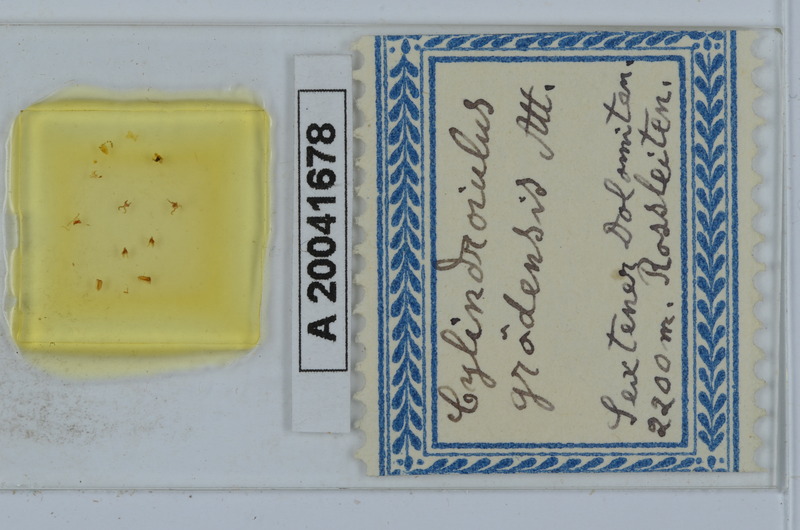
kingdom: Animalia
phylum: Arthropoda
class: Diplopoda
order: Julida
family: Julidae
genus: Allajulus
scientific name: Allajulus groedensis
